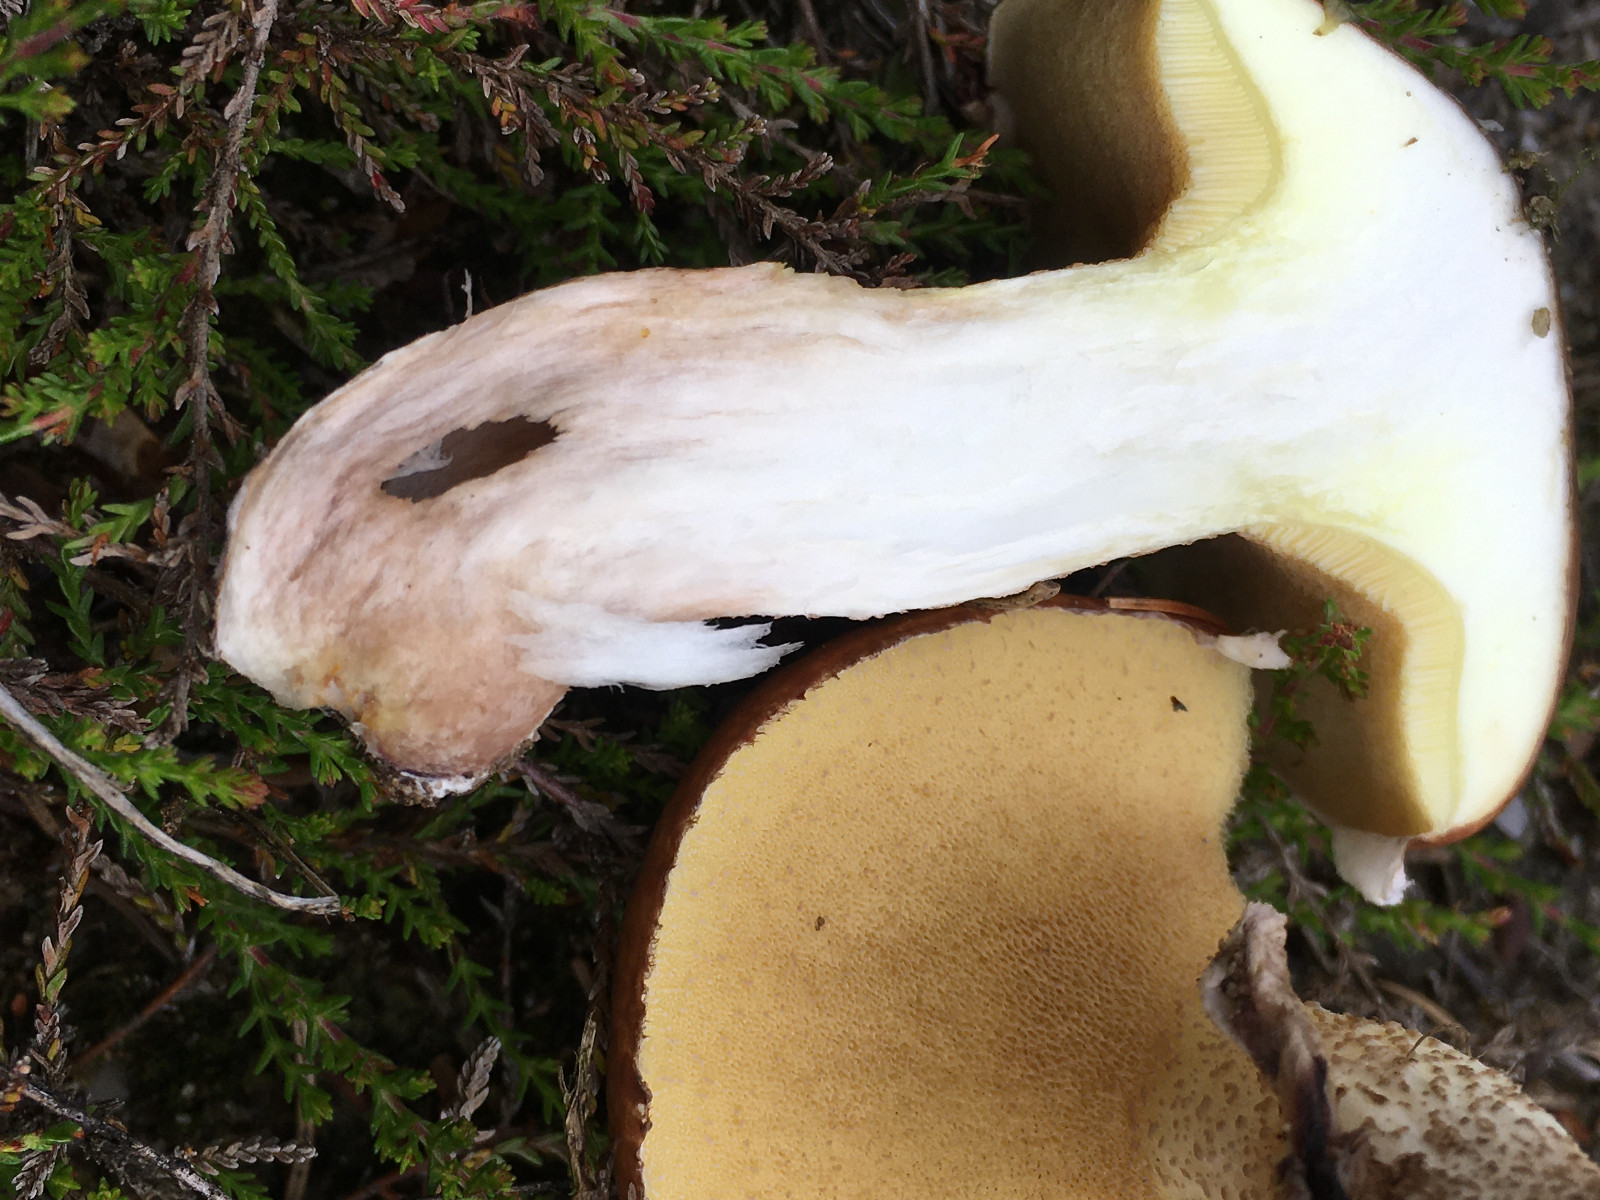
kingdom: Fungi
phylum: Basidiomycota
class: Agaricomycetes
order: Boletales
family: Suillaceae
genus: Suillus
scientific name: Suillus luteus
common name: brungul slimrørhat
